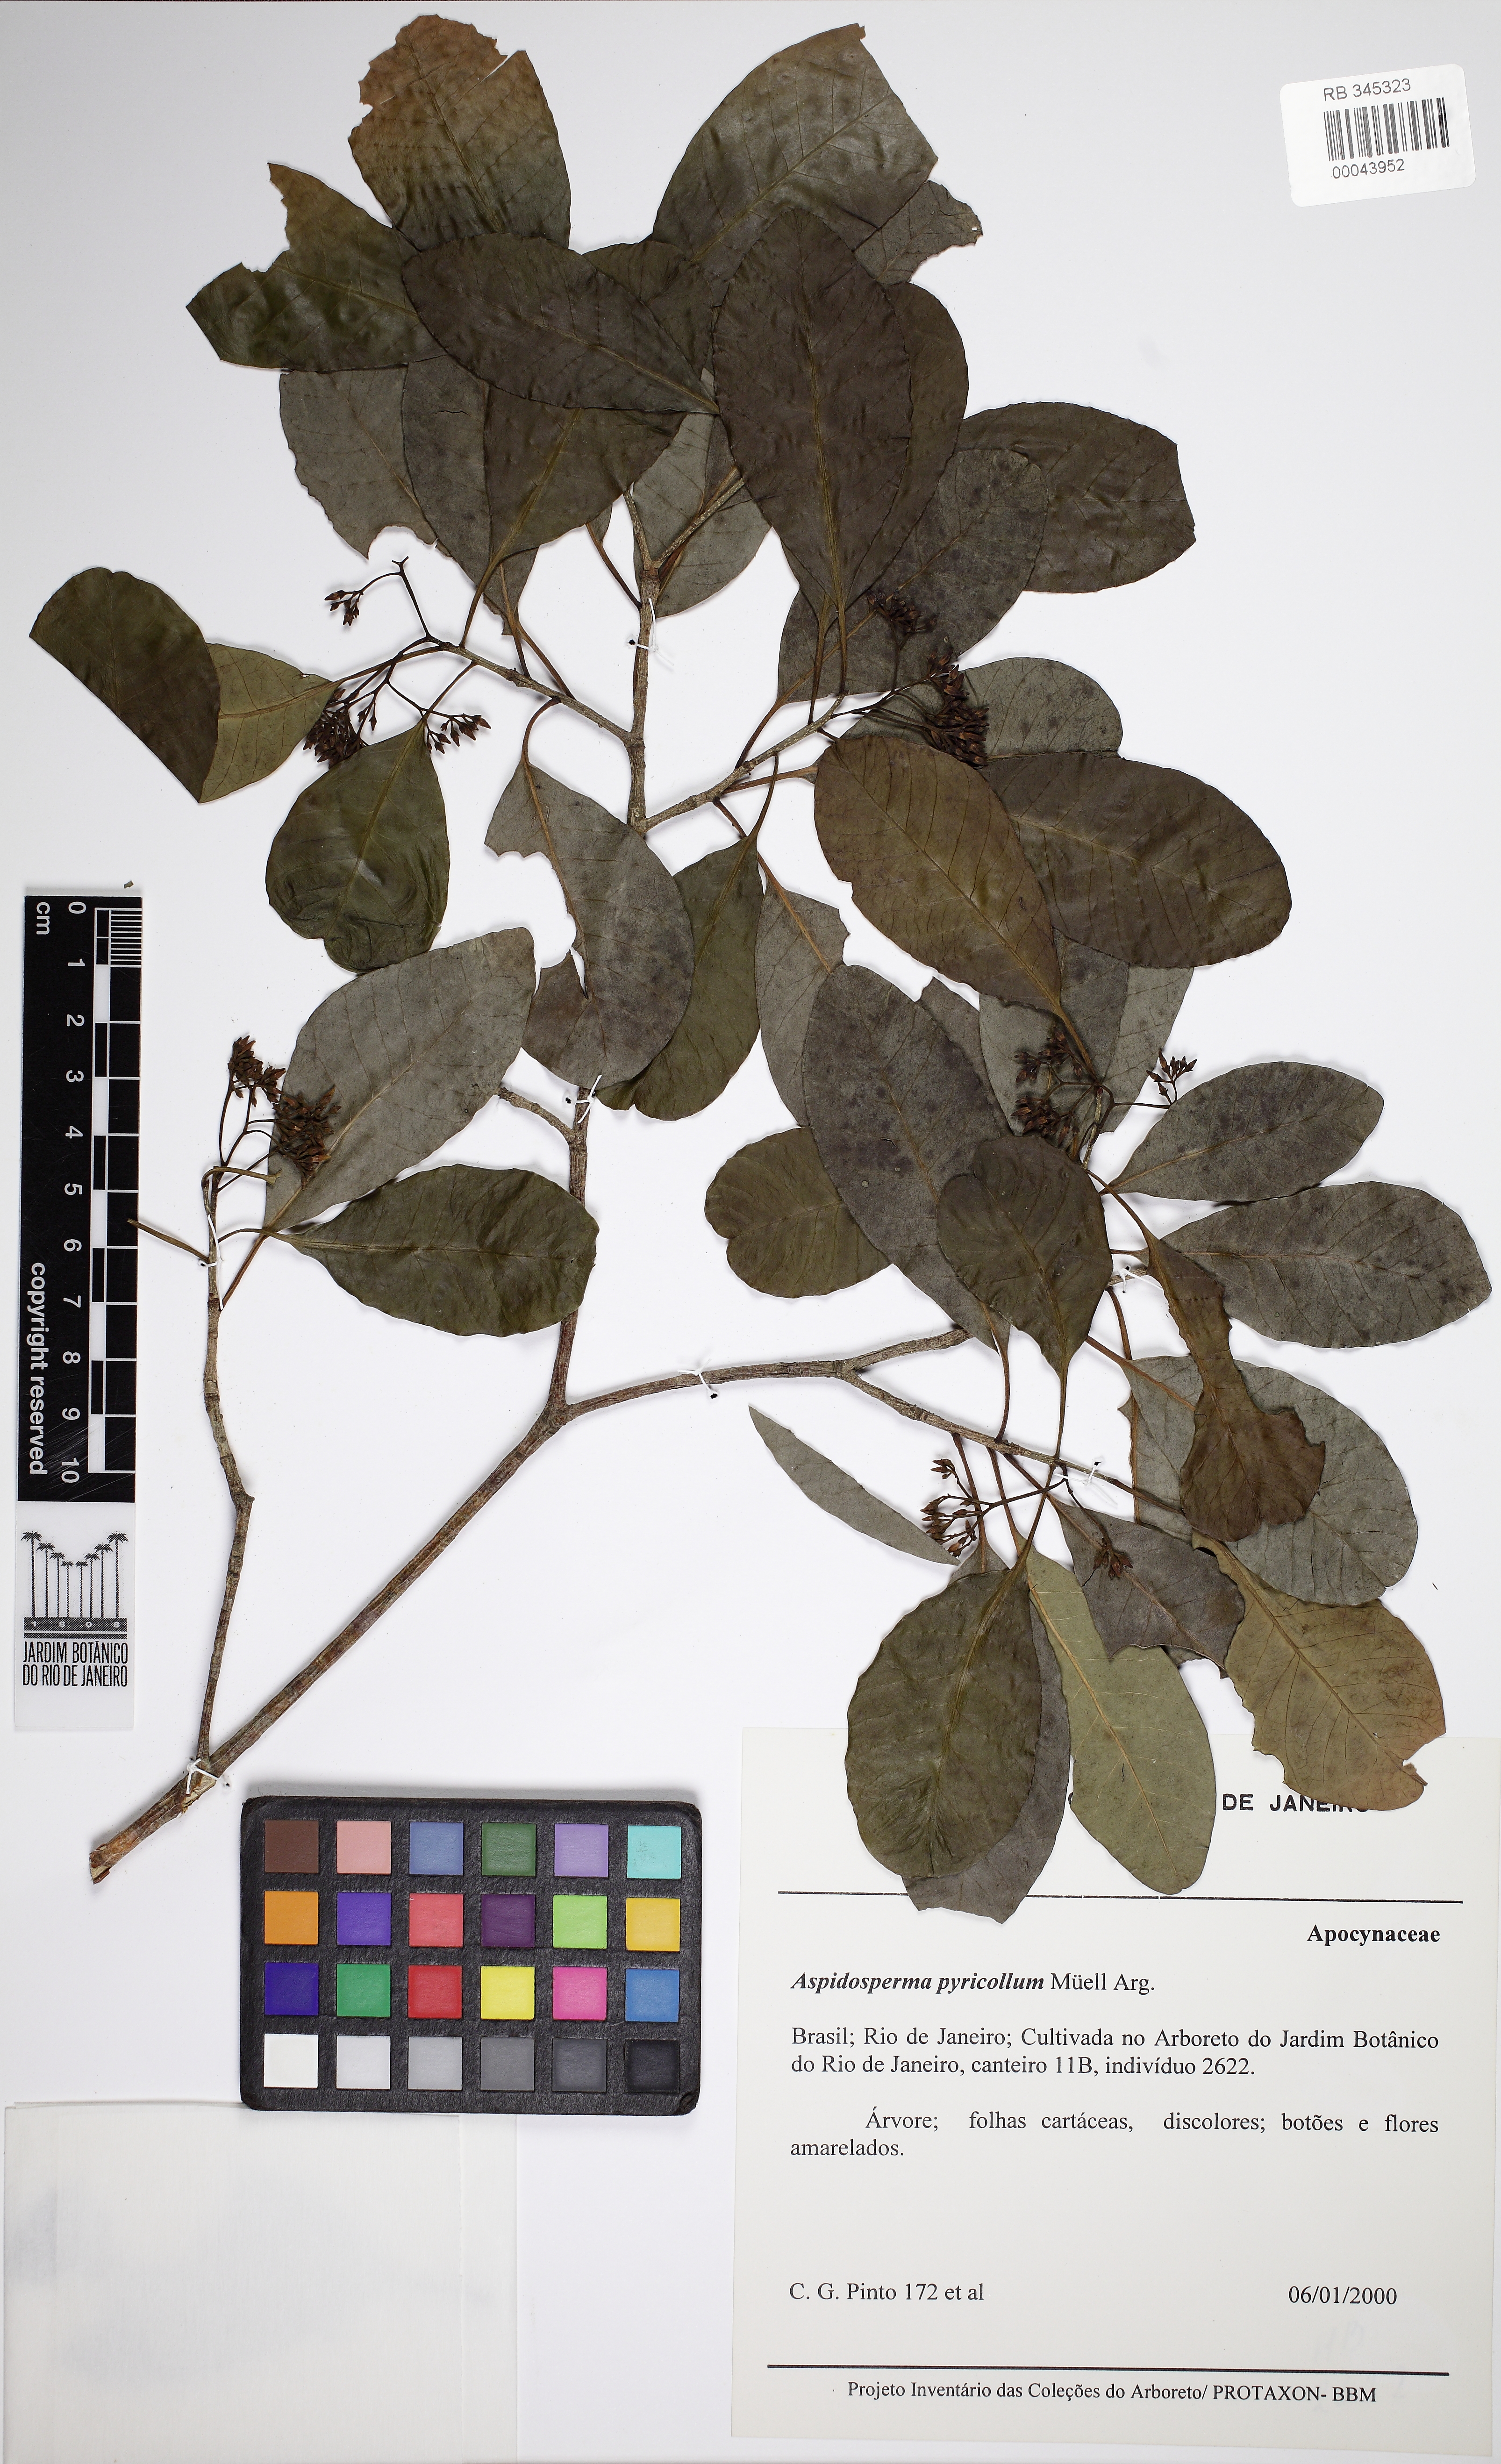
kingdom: Plantae
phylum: Tracheophyta
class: Magnoliopsida
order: Gentianales
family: Apocynaceae
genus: Aspidosperma
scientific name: Aspidosperma pyricollum
